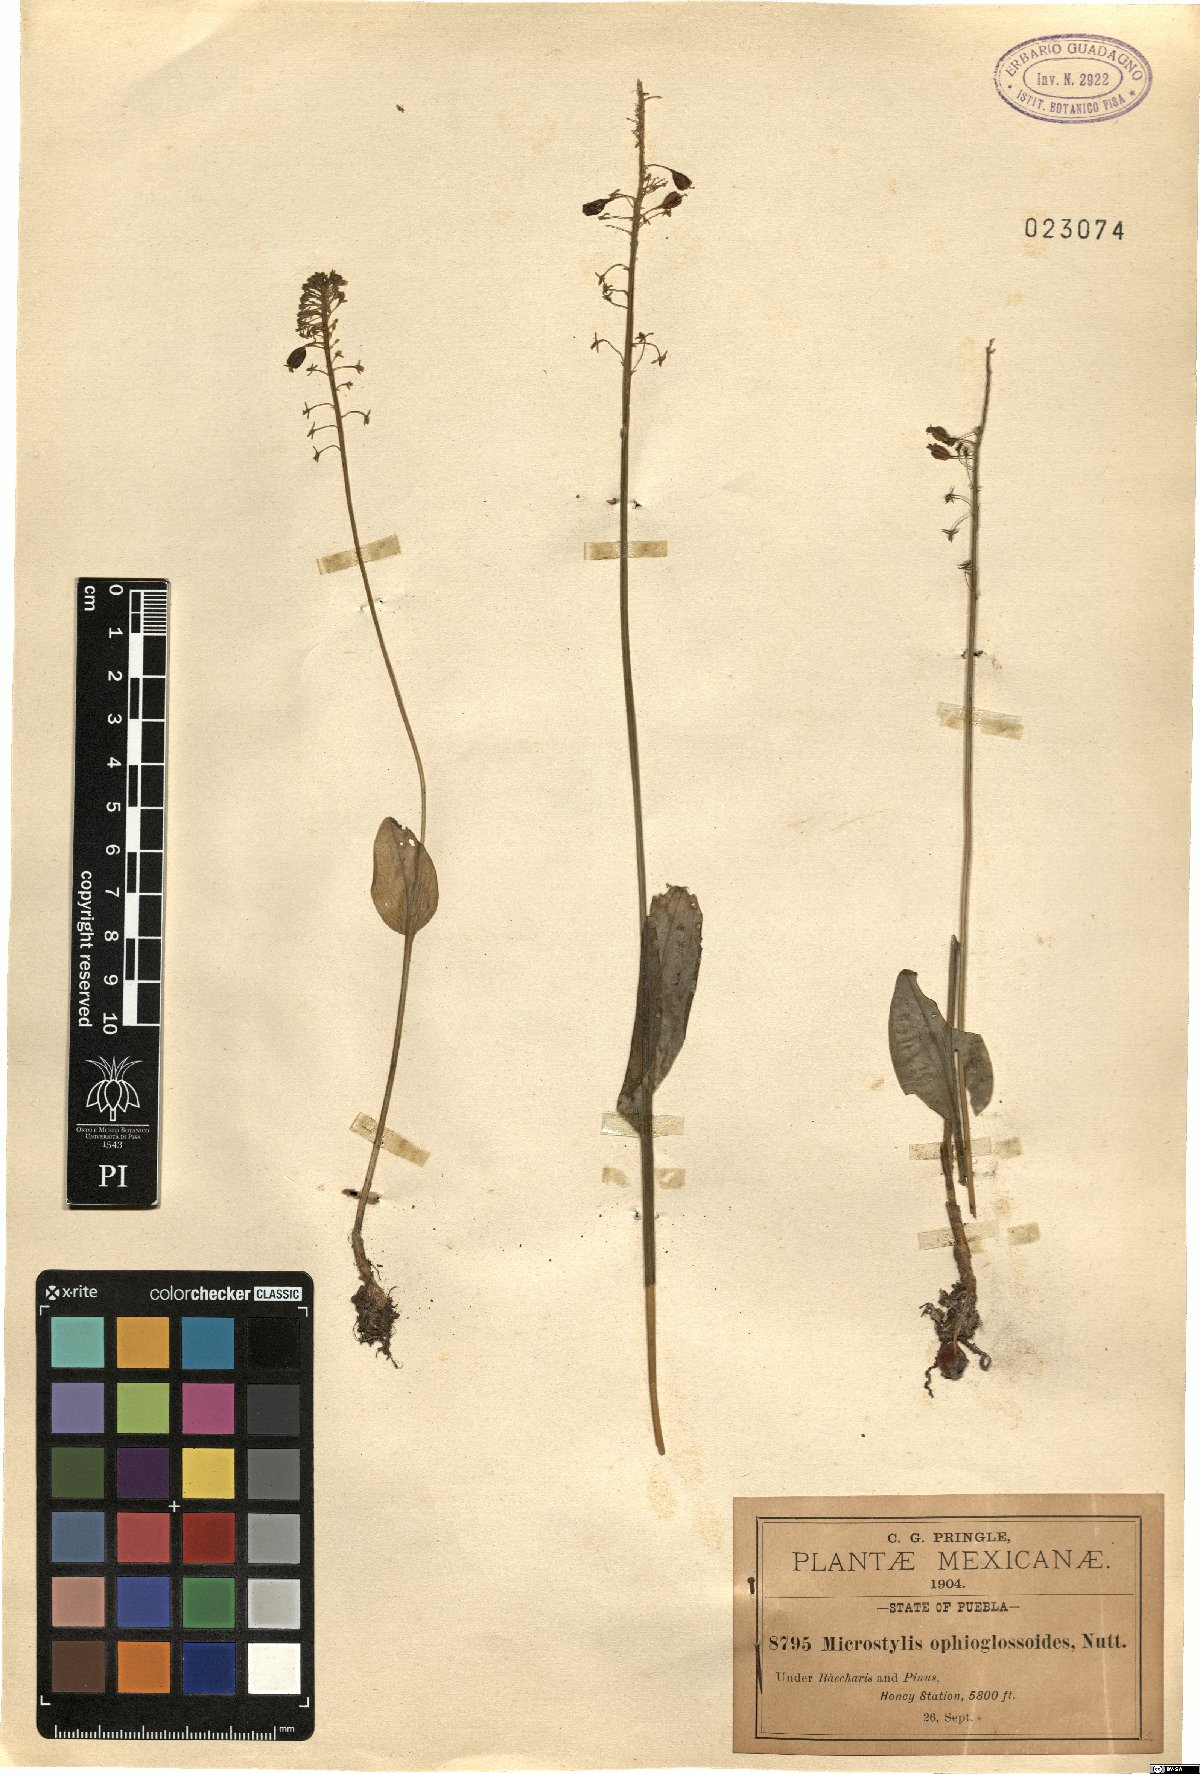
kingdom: Plantae
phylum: Tracheophyta
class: Liliopsida
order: Asparagales
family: Orchidaceae
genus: Malaxis
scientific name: Malaxis unifolia
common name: Green adder's-mouth
